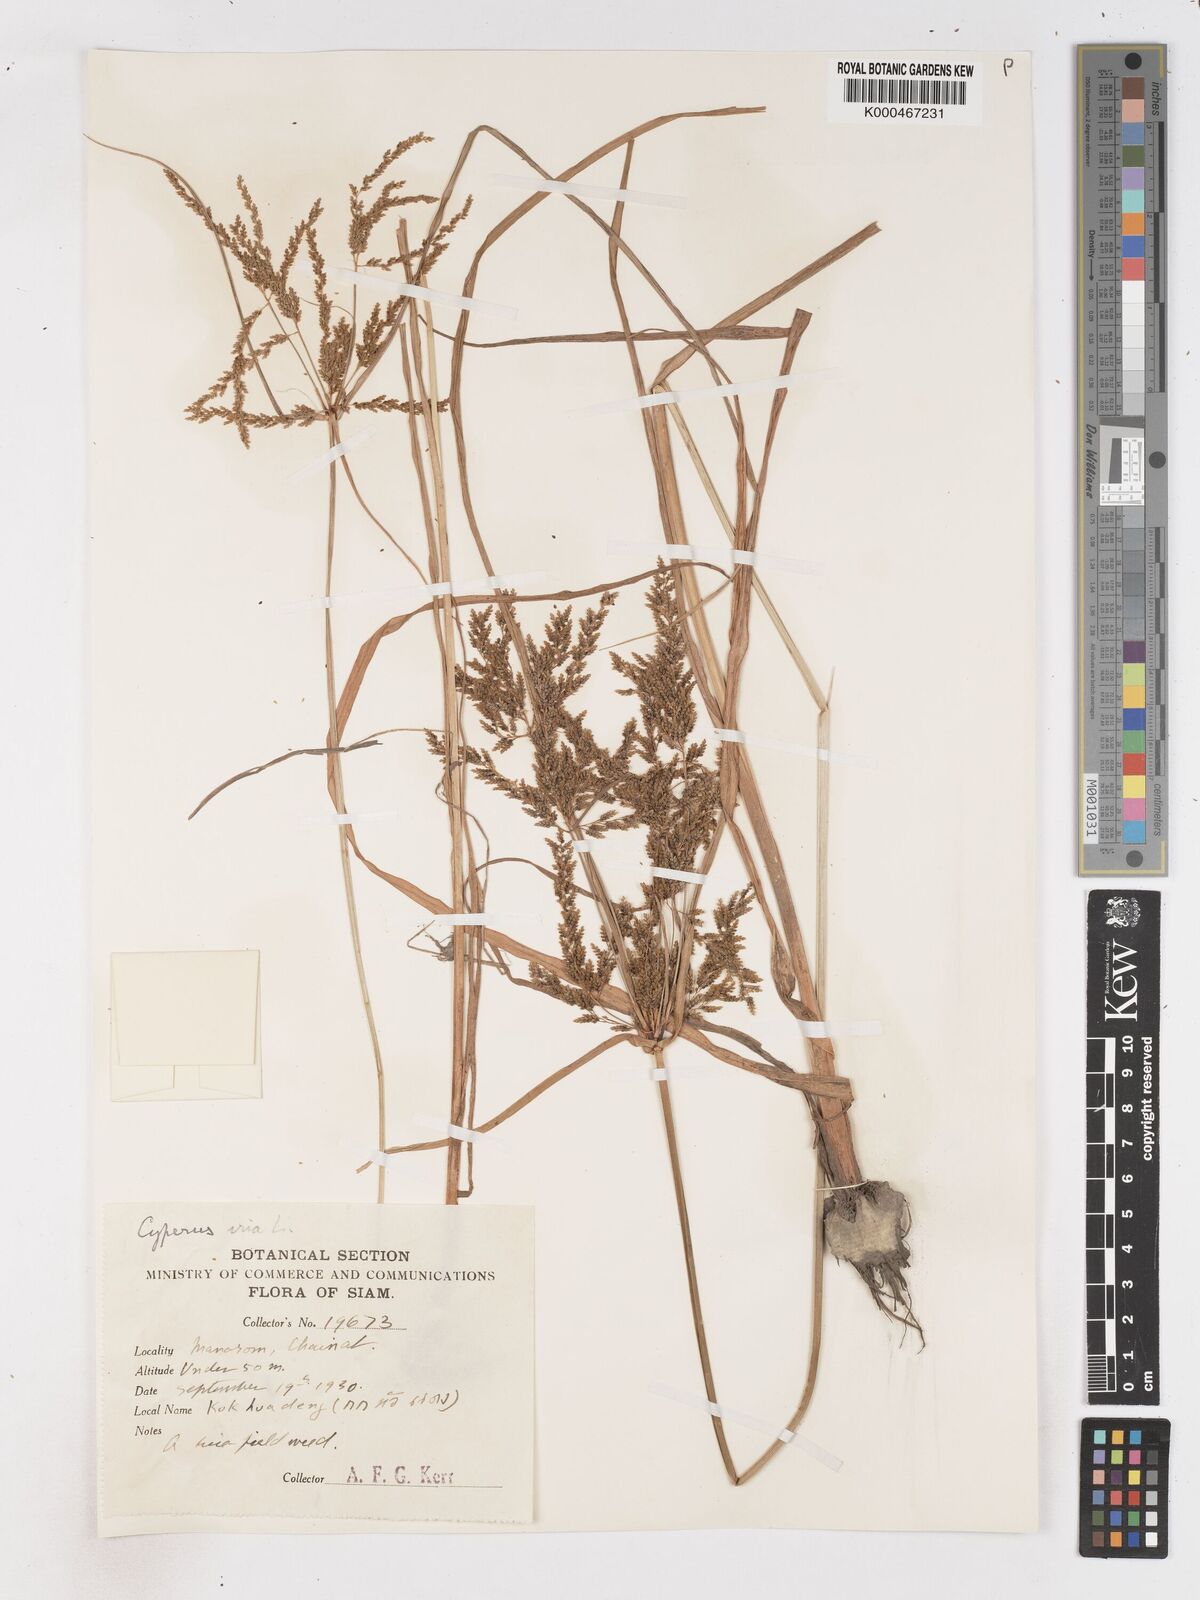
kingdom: Plantae
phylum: Tracheophyta
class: Liliopsida
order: Poales
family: Cyperaceae
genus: Cyperus
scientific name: Cyperus iria
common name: Ricefield flatsedge
